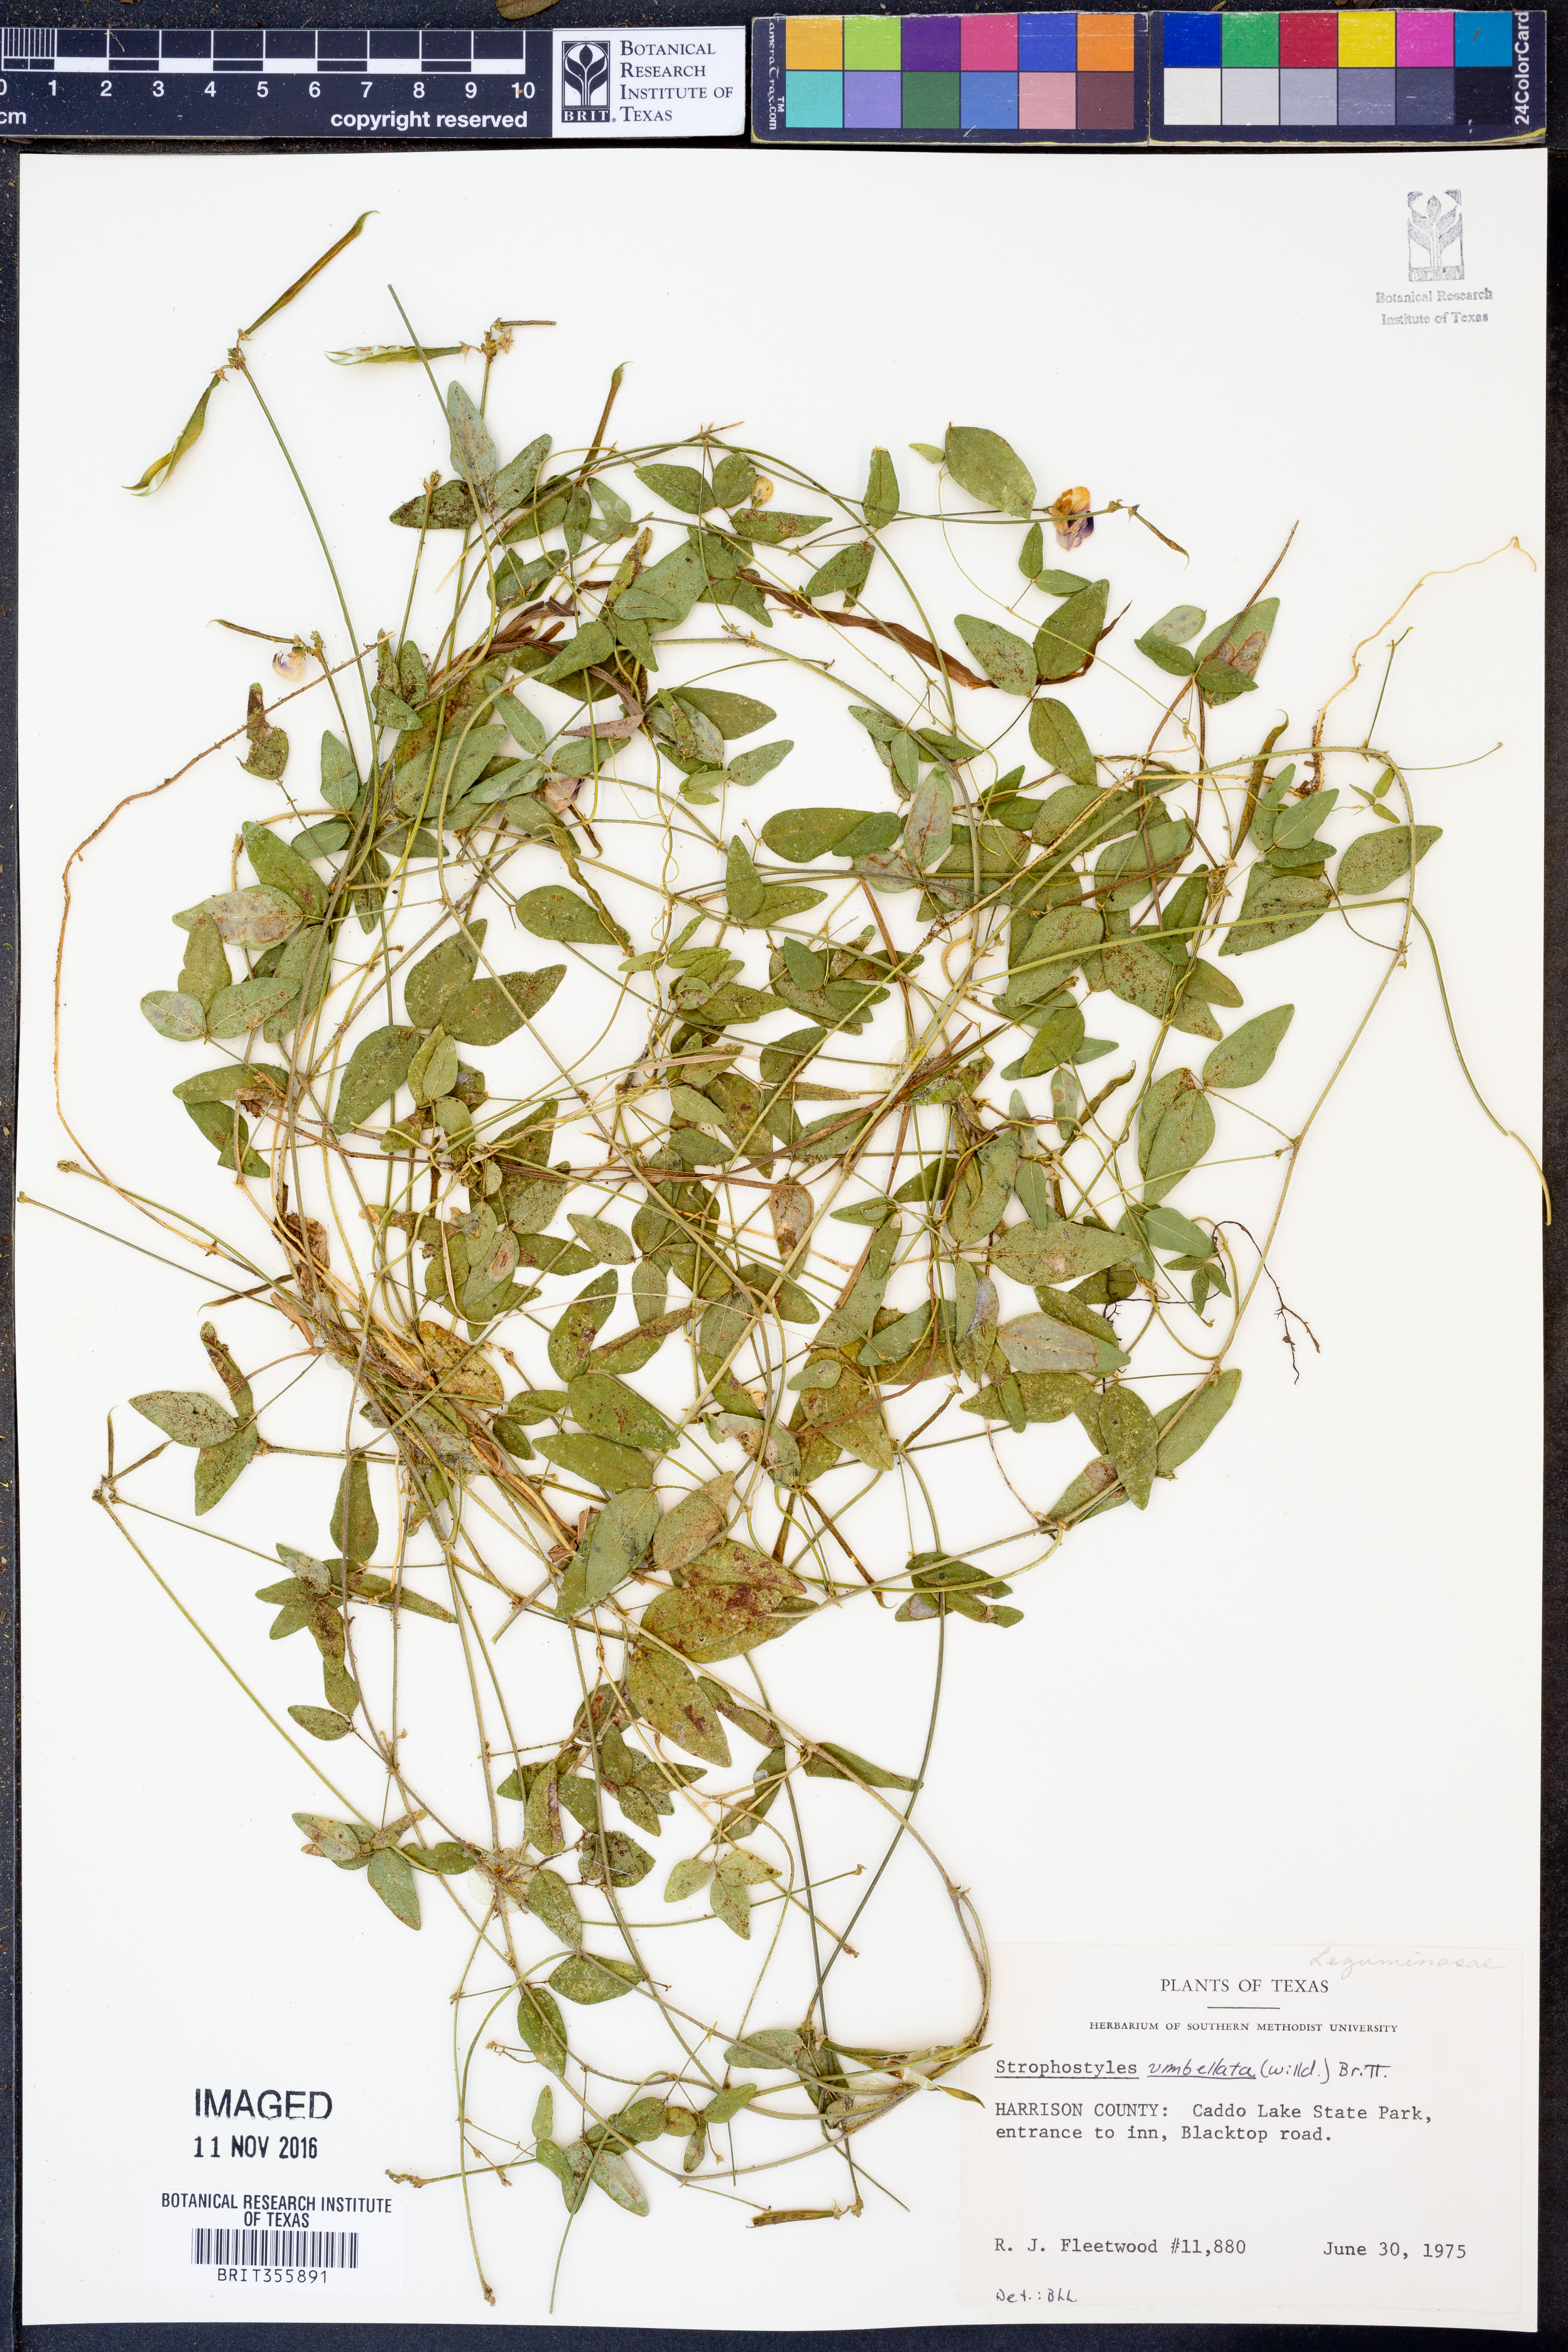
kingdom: Plantae
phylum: Tracheophyta
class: Magnoliopsida
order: Fabales
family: Fabaceae
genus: Strophostyles
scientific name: Strophostyles umbellata
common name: Perennial wild bean
